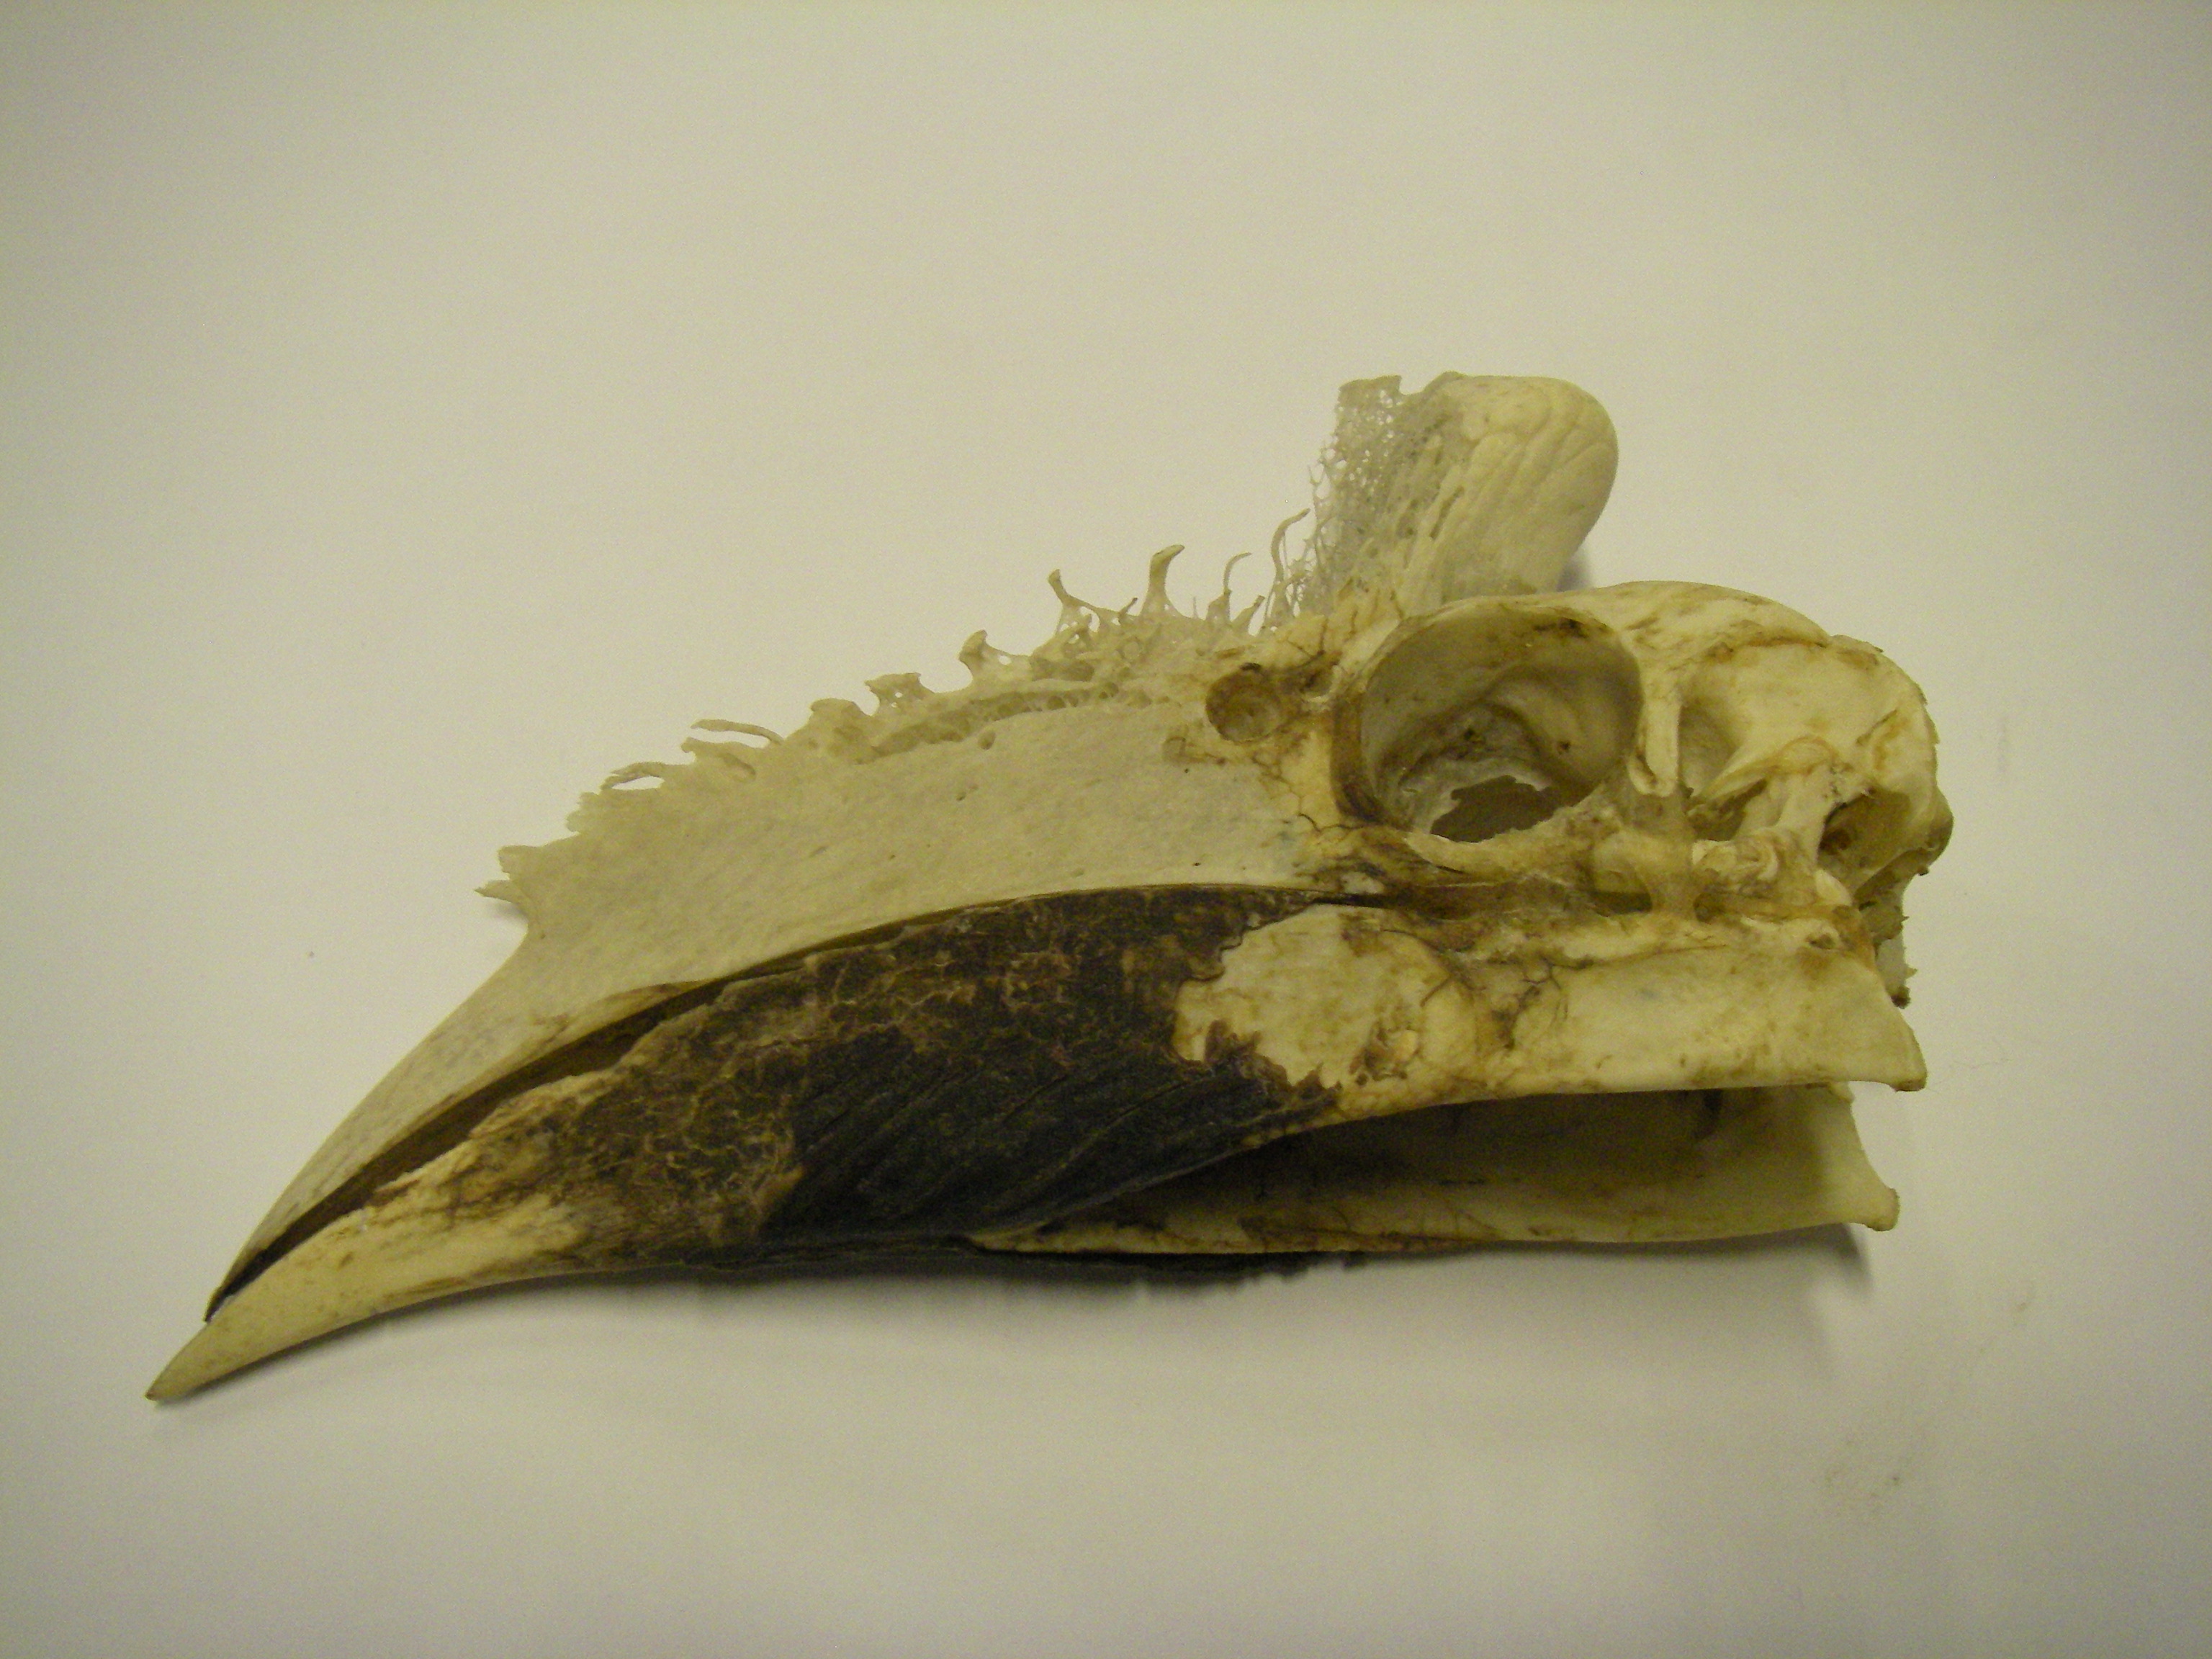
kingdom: Animalia
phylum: Chordata
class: Aves
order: Bucerotiformes
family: Bucerotidae
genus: Anthracoceros
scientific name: Anthracoceros coronatus
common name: Malabar pied hornbill
